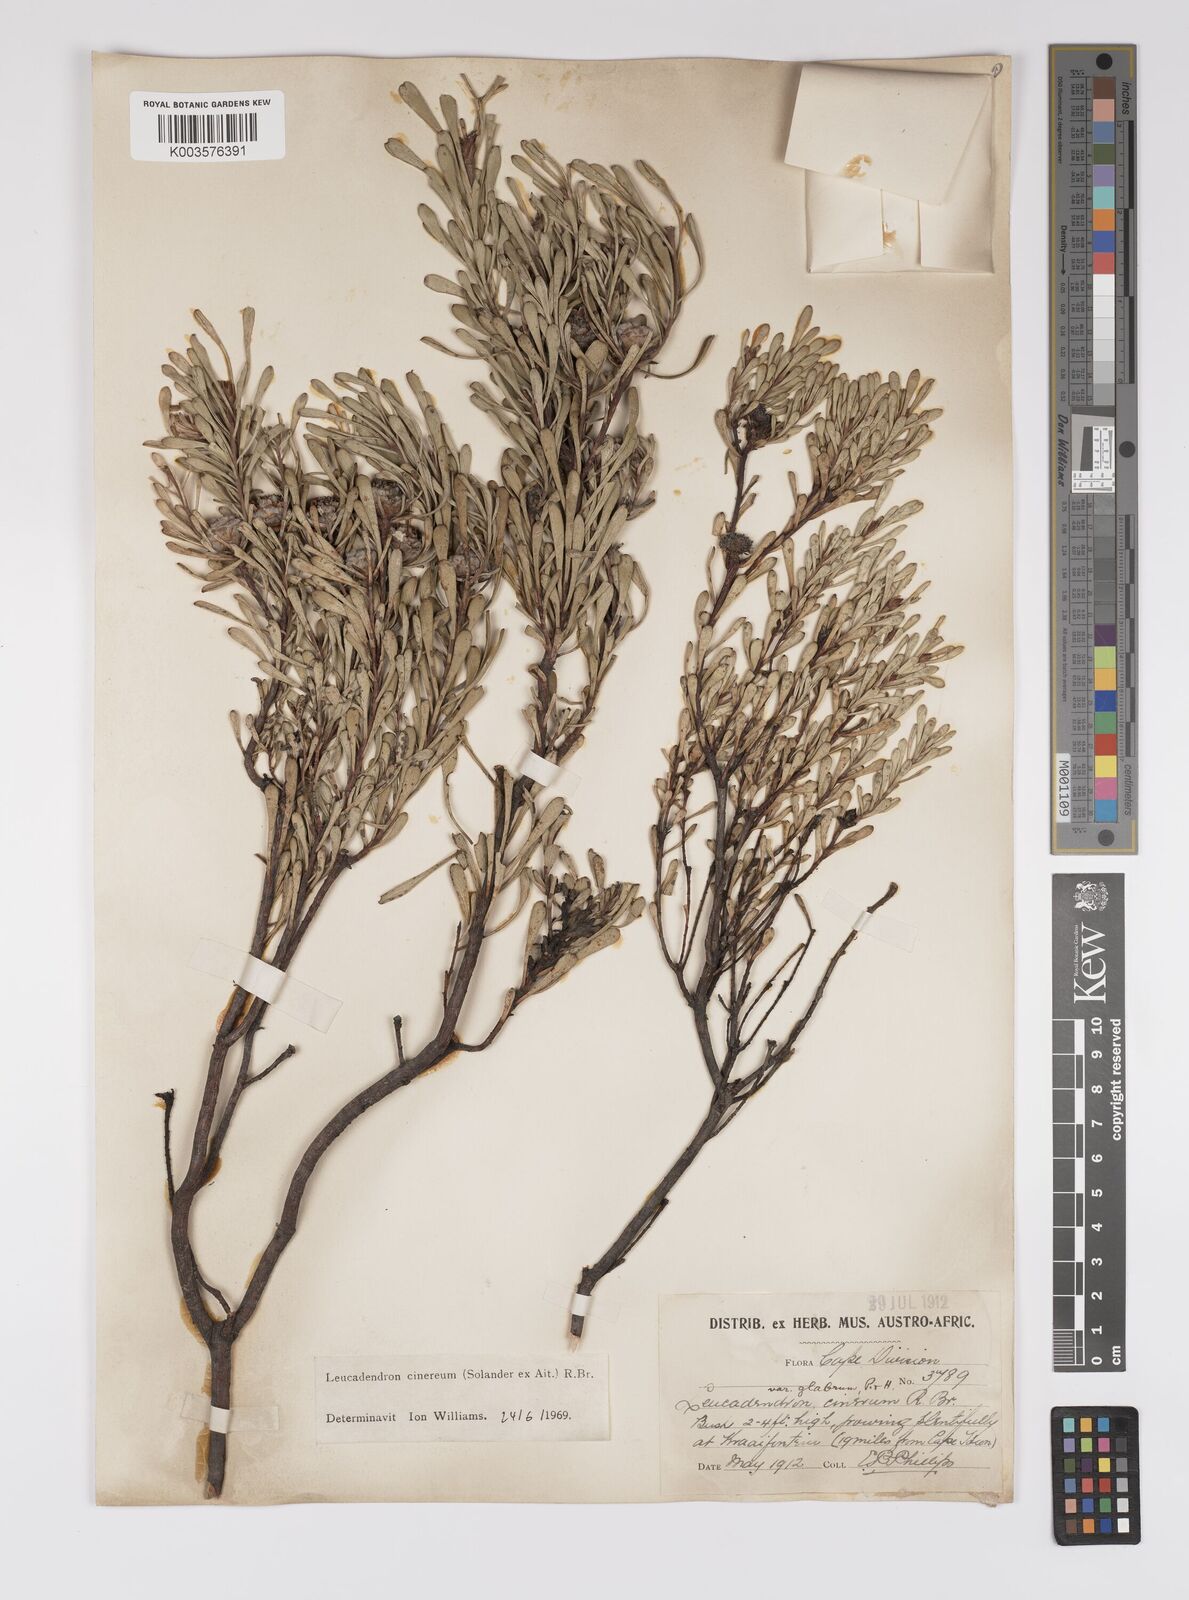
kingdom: Plantae
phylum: Tracheophyta
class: Magnoliopsida
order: Proteales
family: Proteaceae
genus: Leucadendron
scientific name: Leucadendron cinereum
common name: Scraggly conebush
